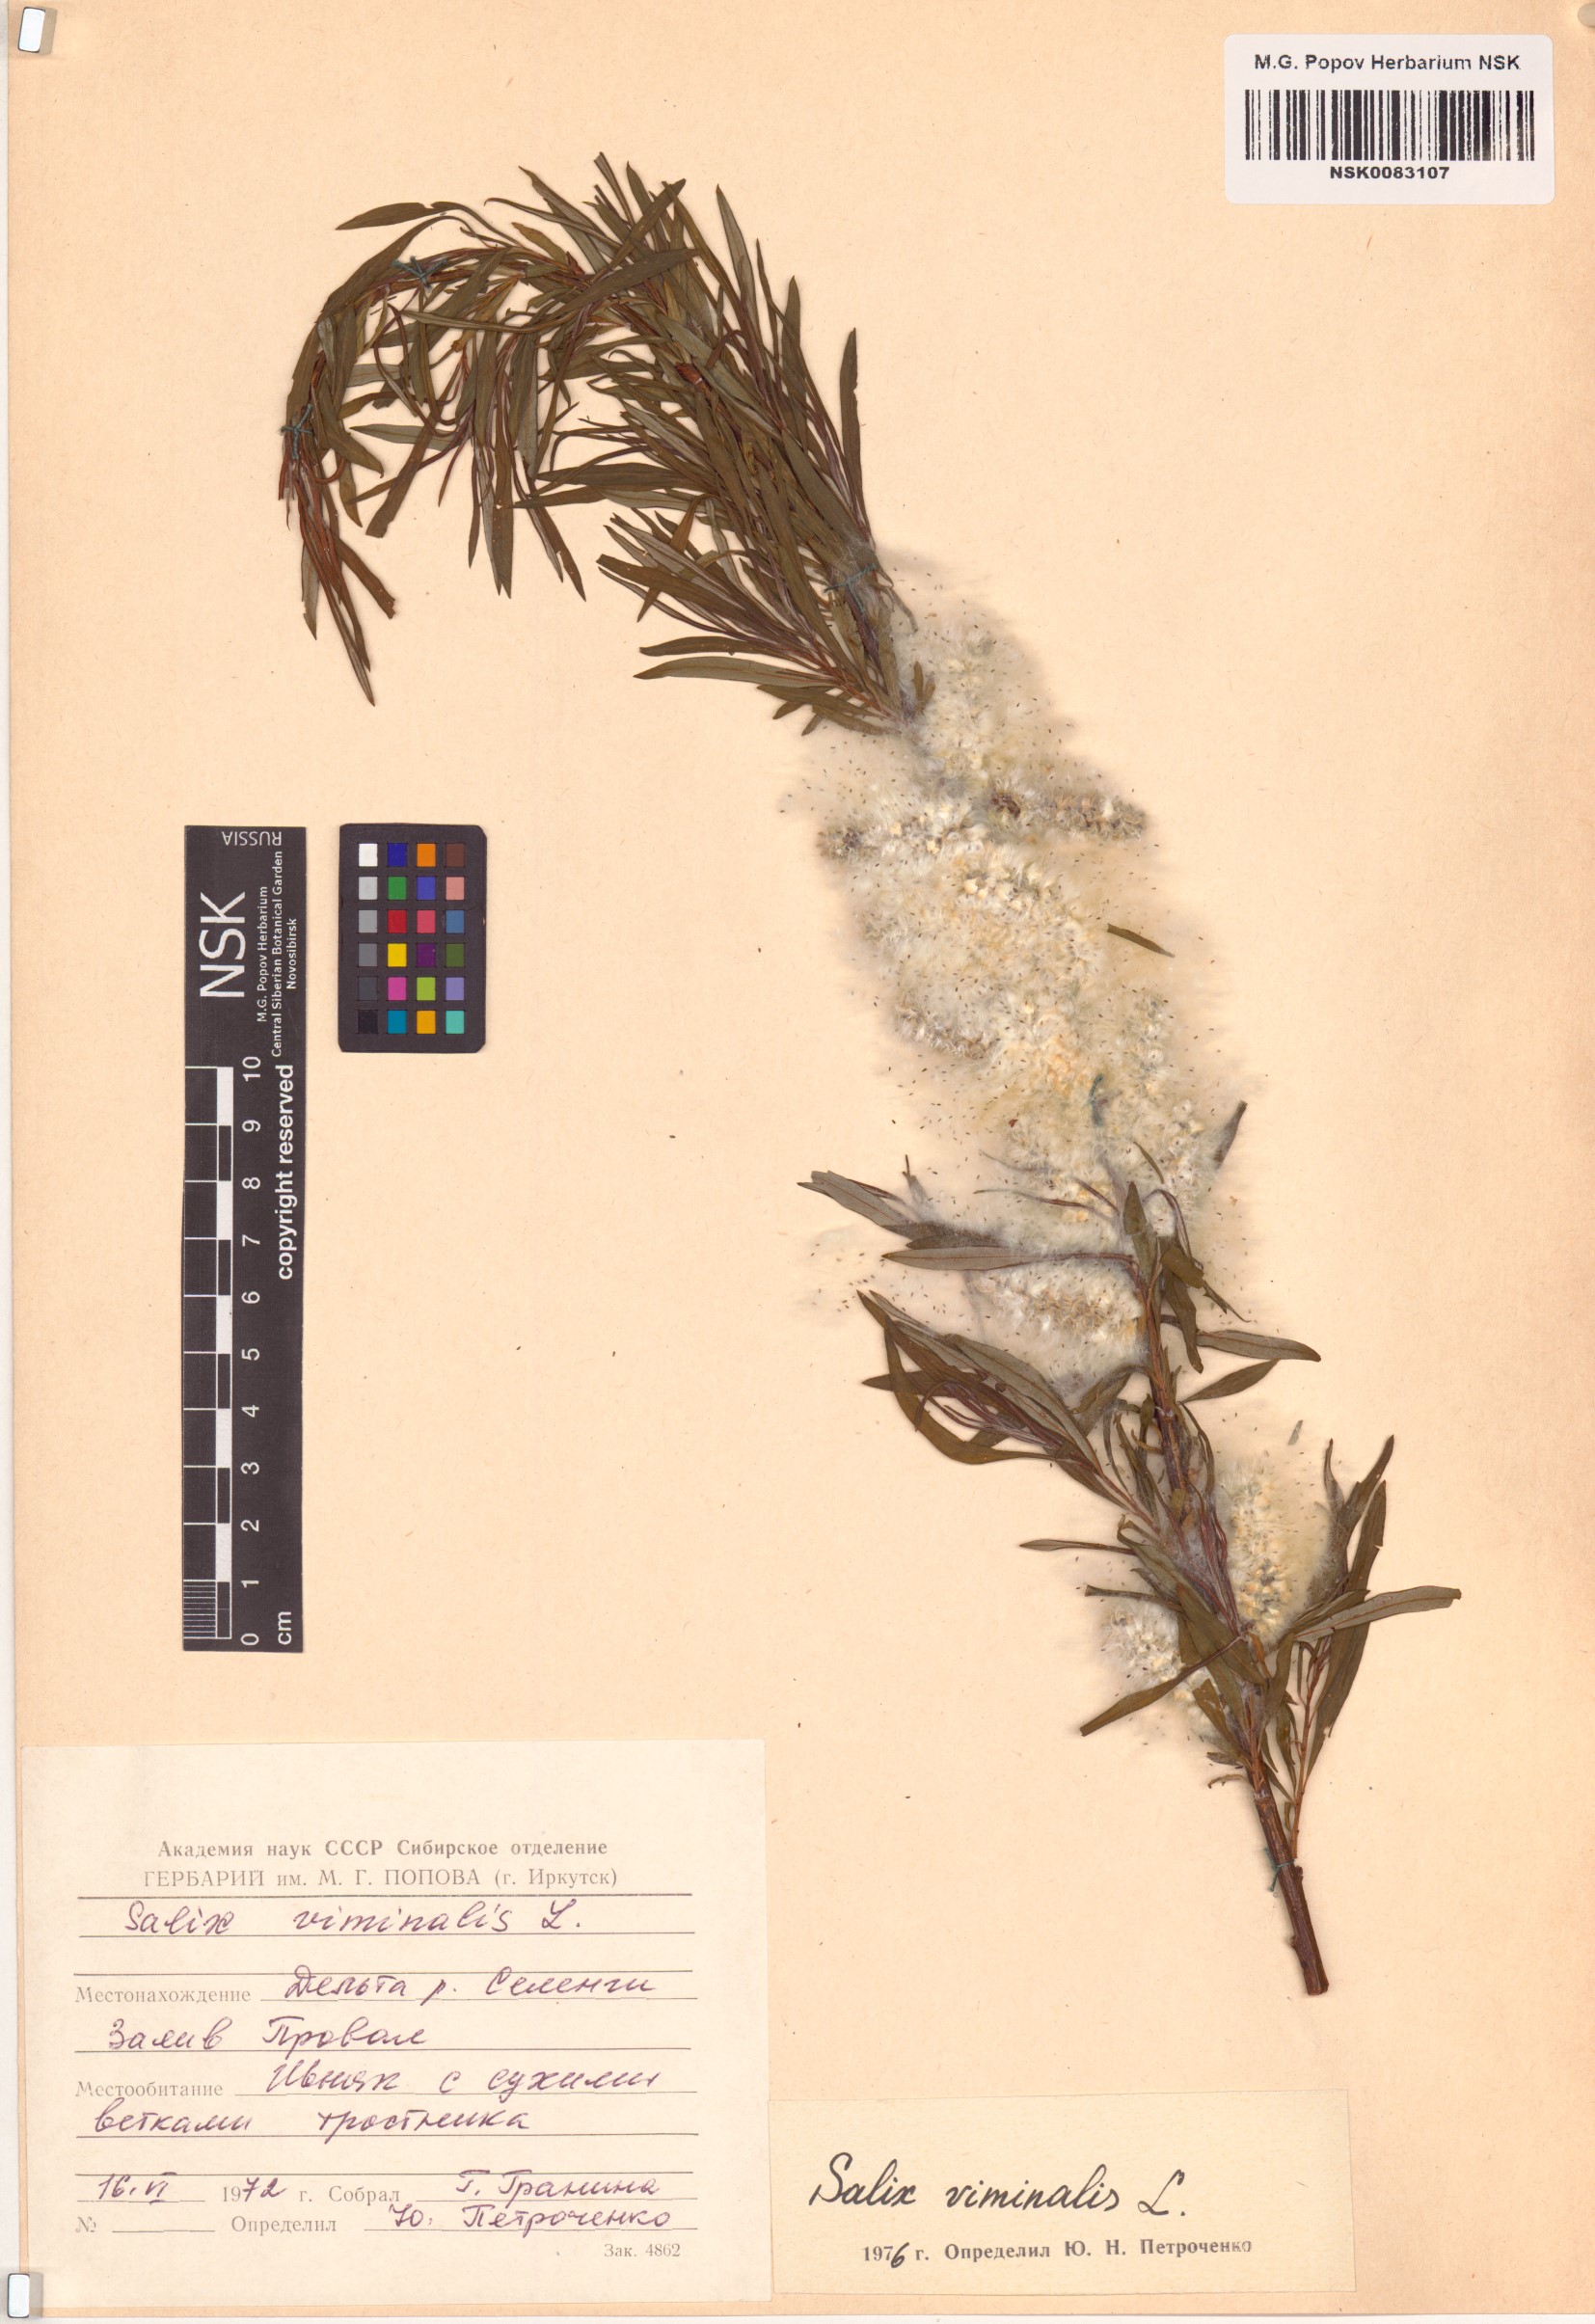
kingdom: Plantae
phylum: Tracheophyta
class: Magnoliopsida
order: Malpighiales
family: Salicaceae
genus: Salix
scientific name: Salix viminalis
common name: Osier
